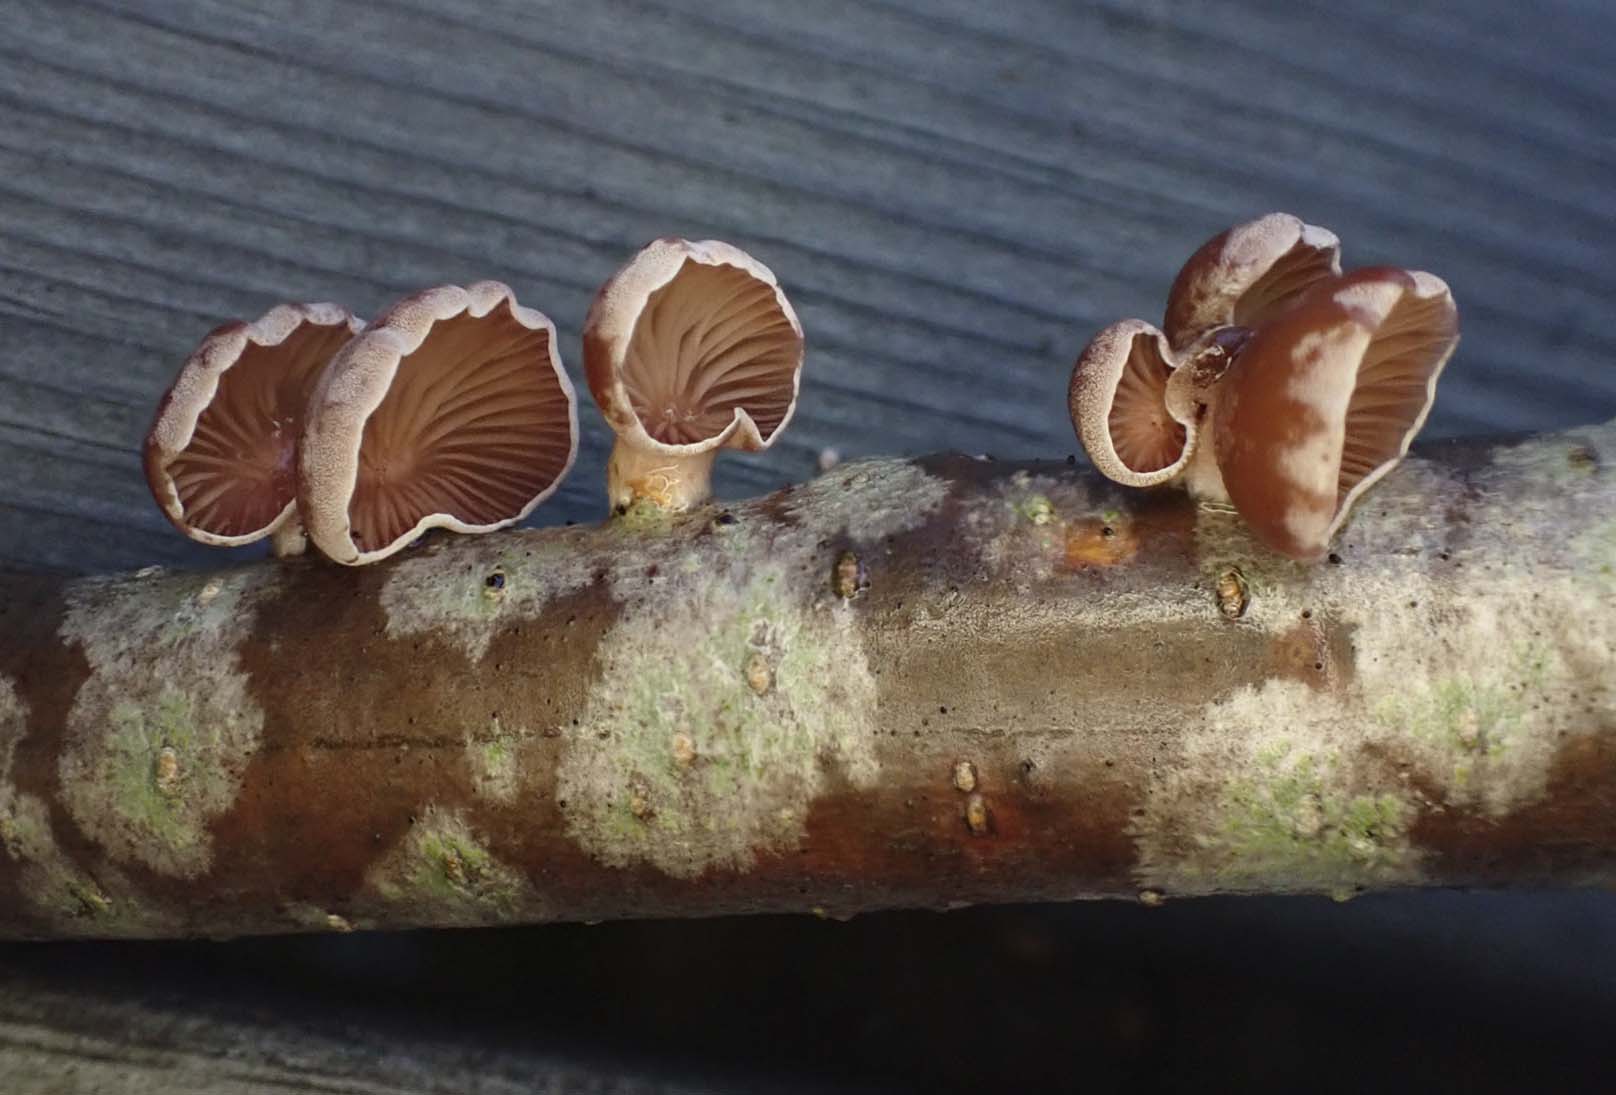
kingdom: Fungi
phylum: Basidiomycota
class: Agaricomycetes
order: Agaricales
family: Mycenaceae
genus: Panellus
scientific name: Panellus ringens
